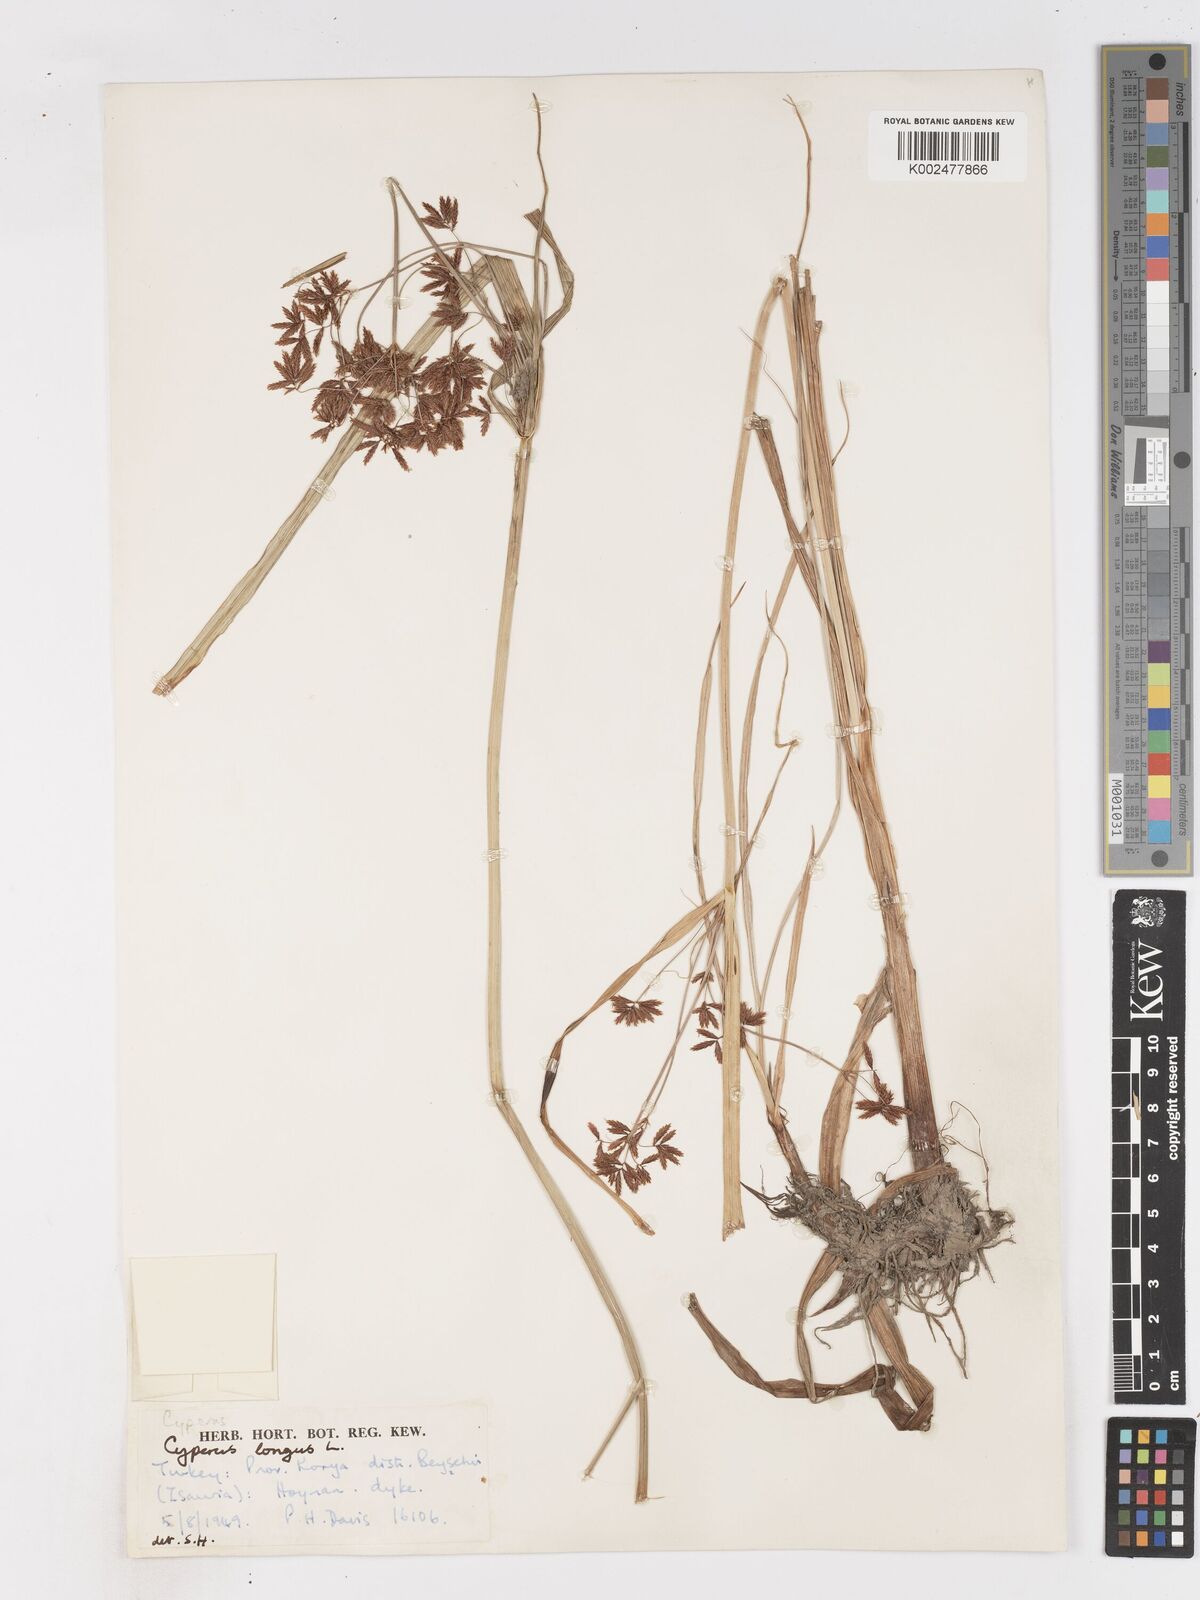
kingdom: Plantae
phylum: Tracheophyta
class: Liliopsida
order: Poales
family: Cyperaceae
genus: Cyperus
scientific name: Cyperus longus
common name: Galingale
